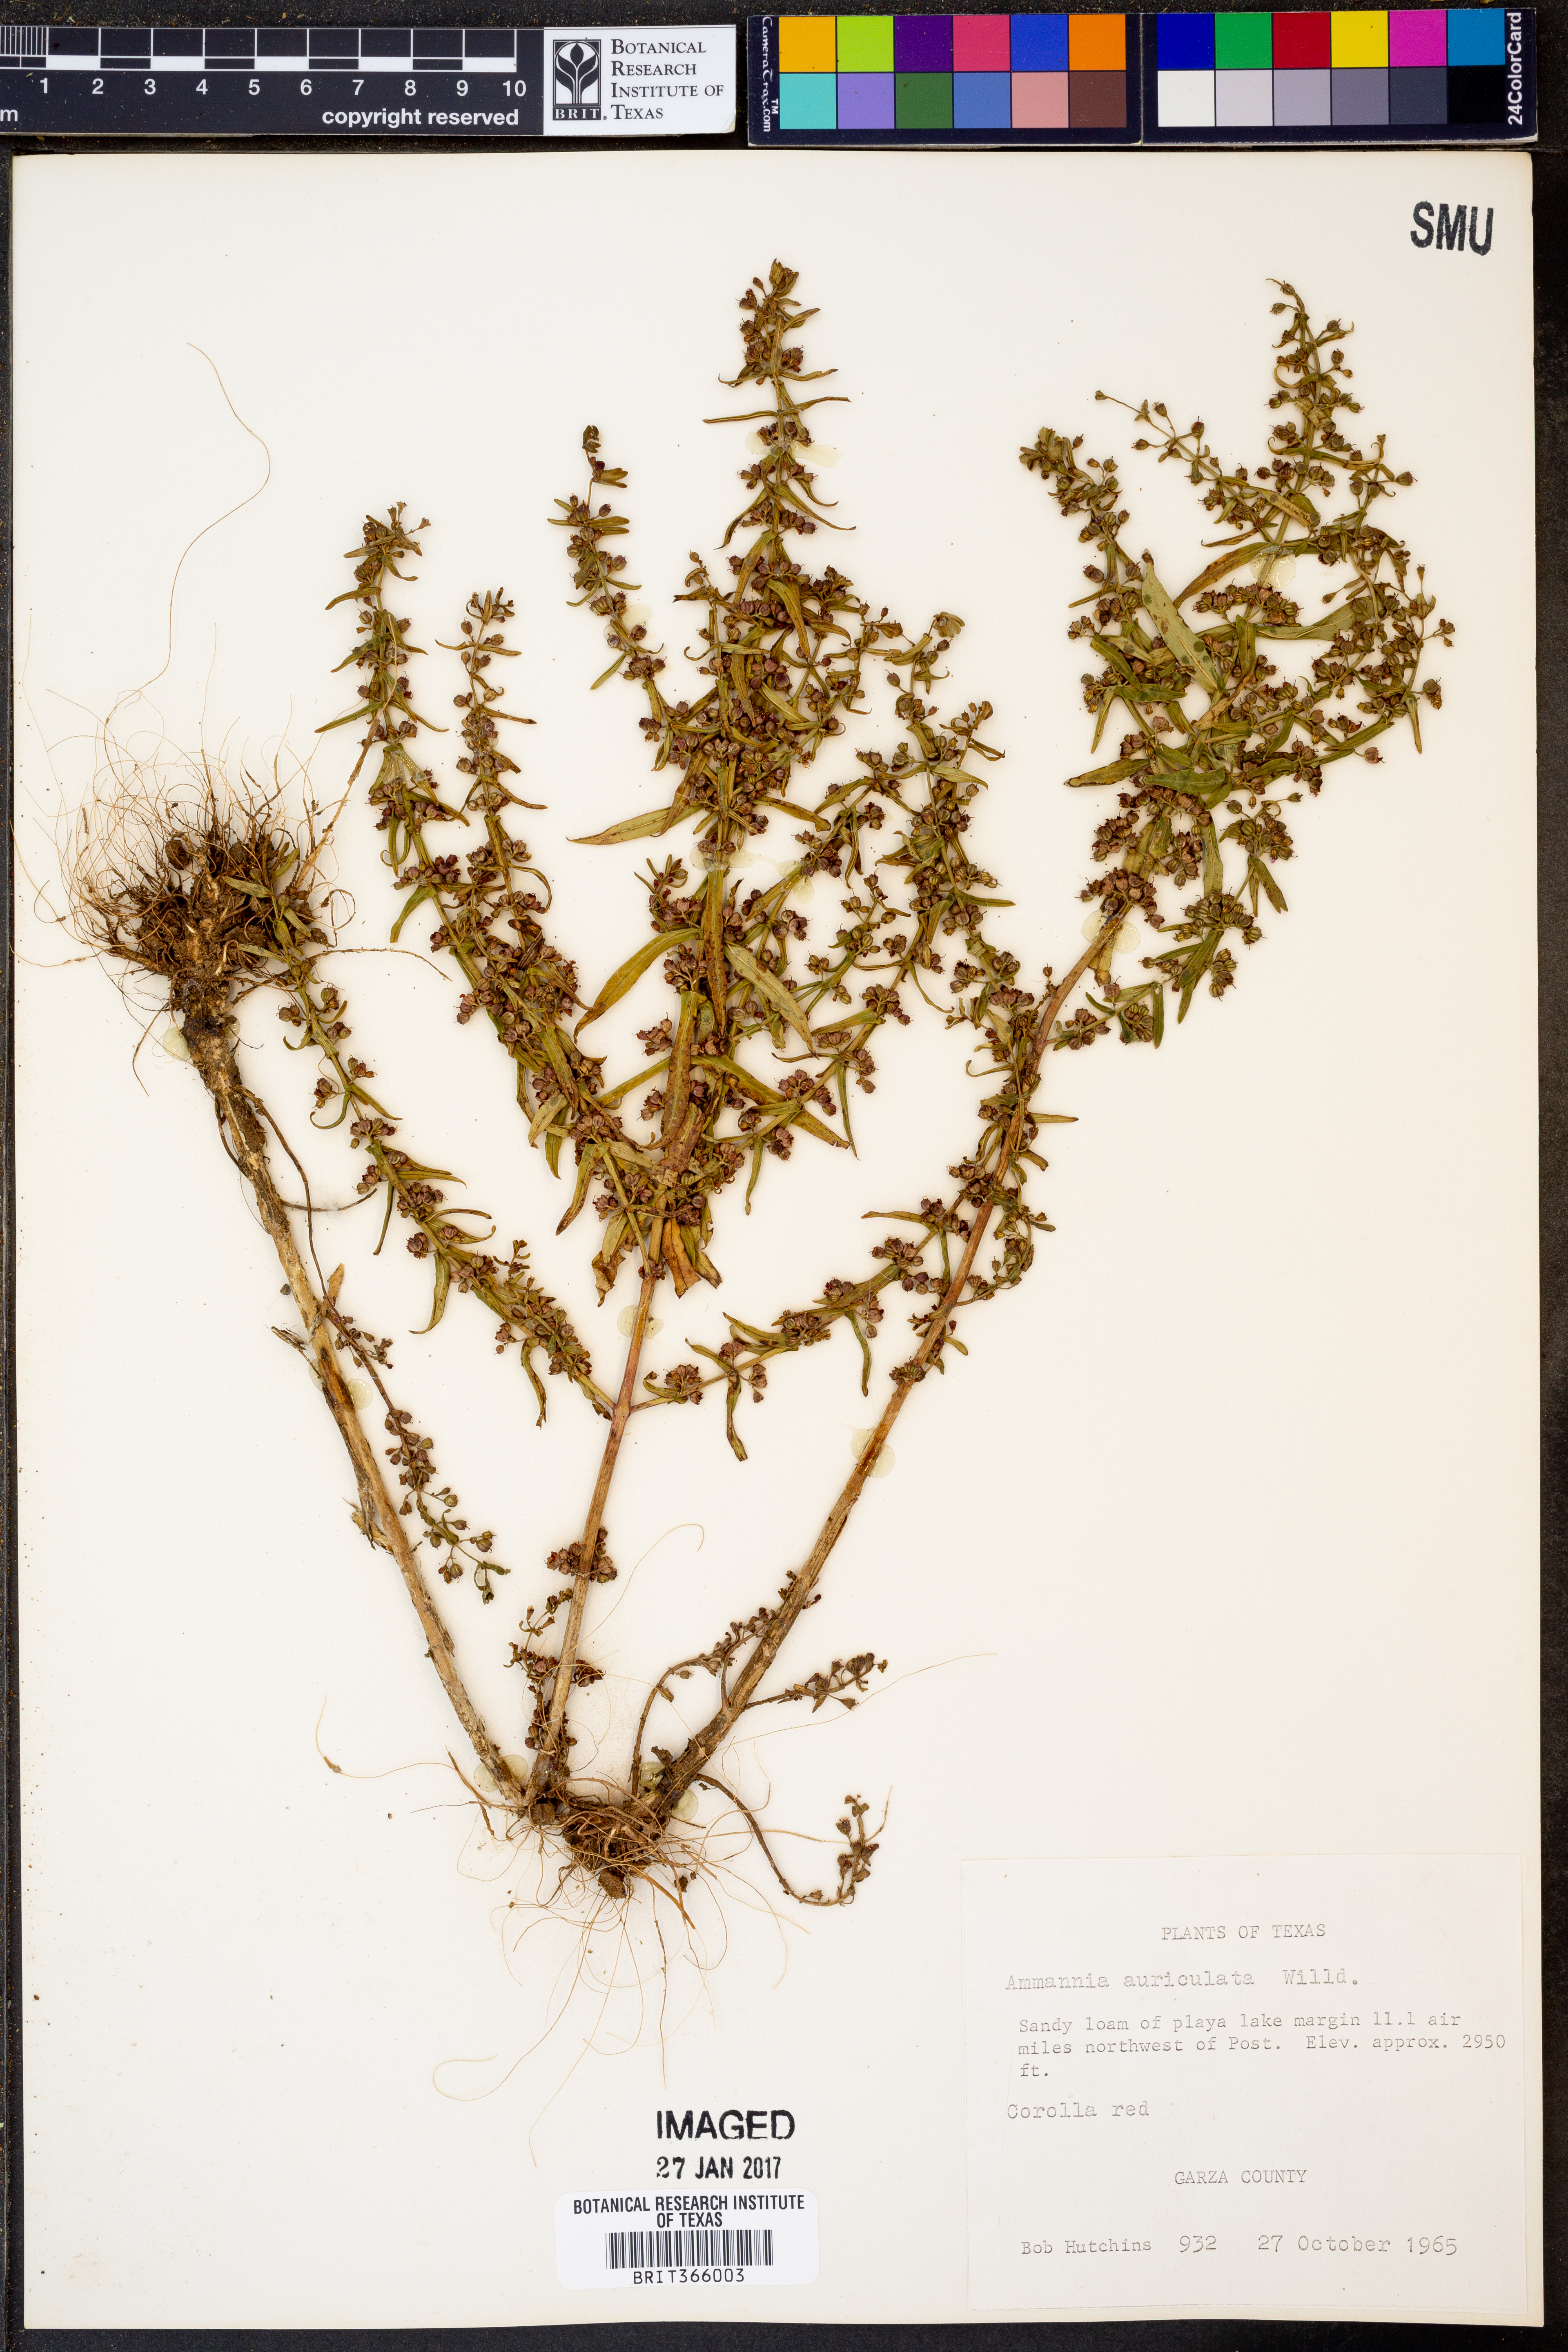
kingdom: Plantae
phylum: Tracheophyta
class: Magnoliopsida
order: Myrtales
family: Lythraceae
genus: Ammannia
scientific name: Ammannia auriculata
